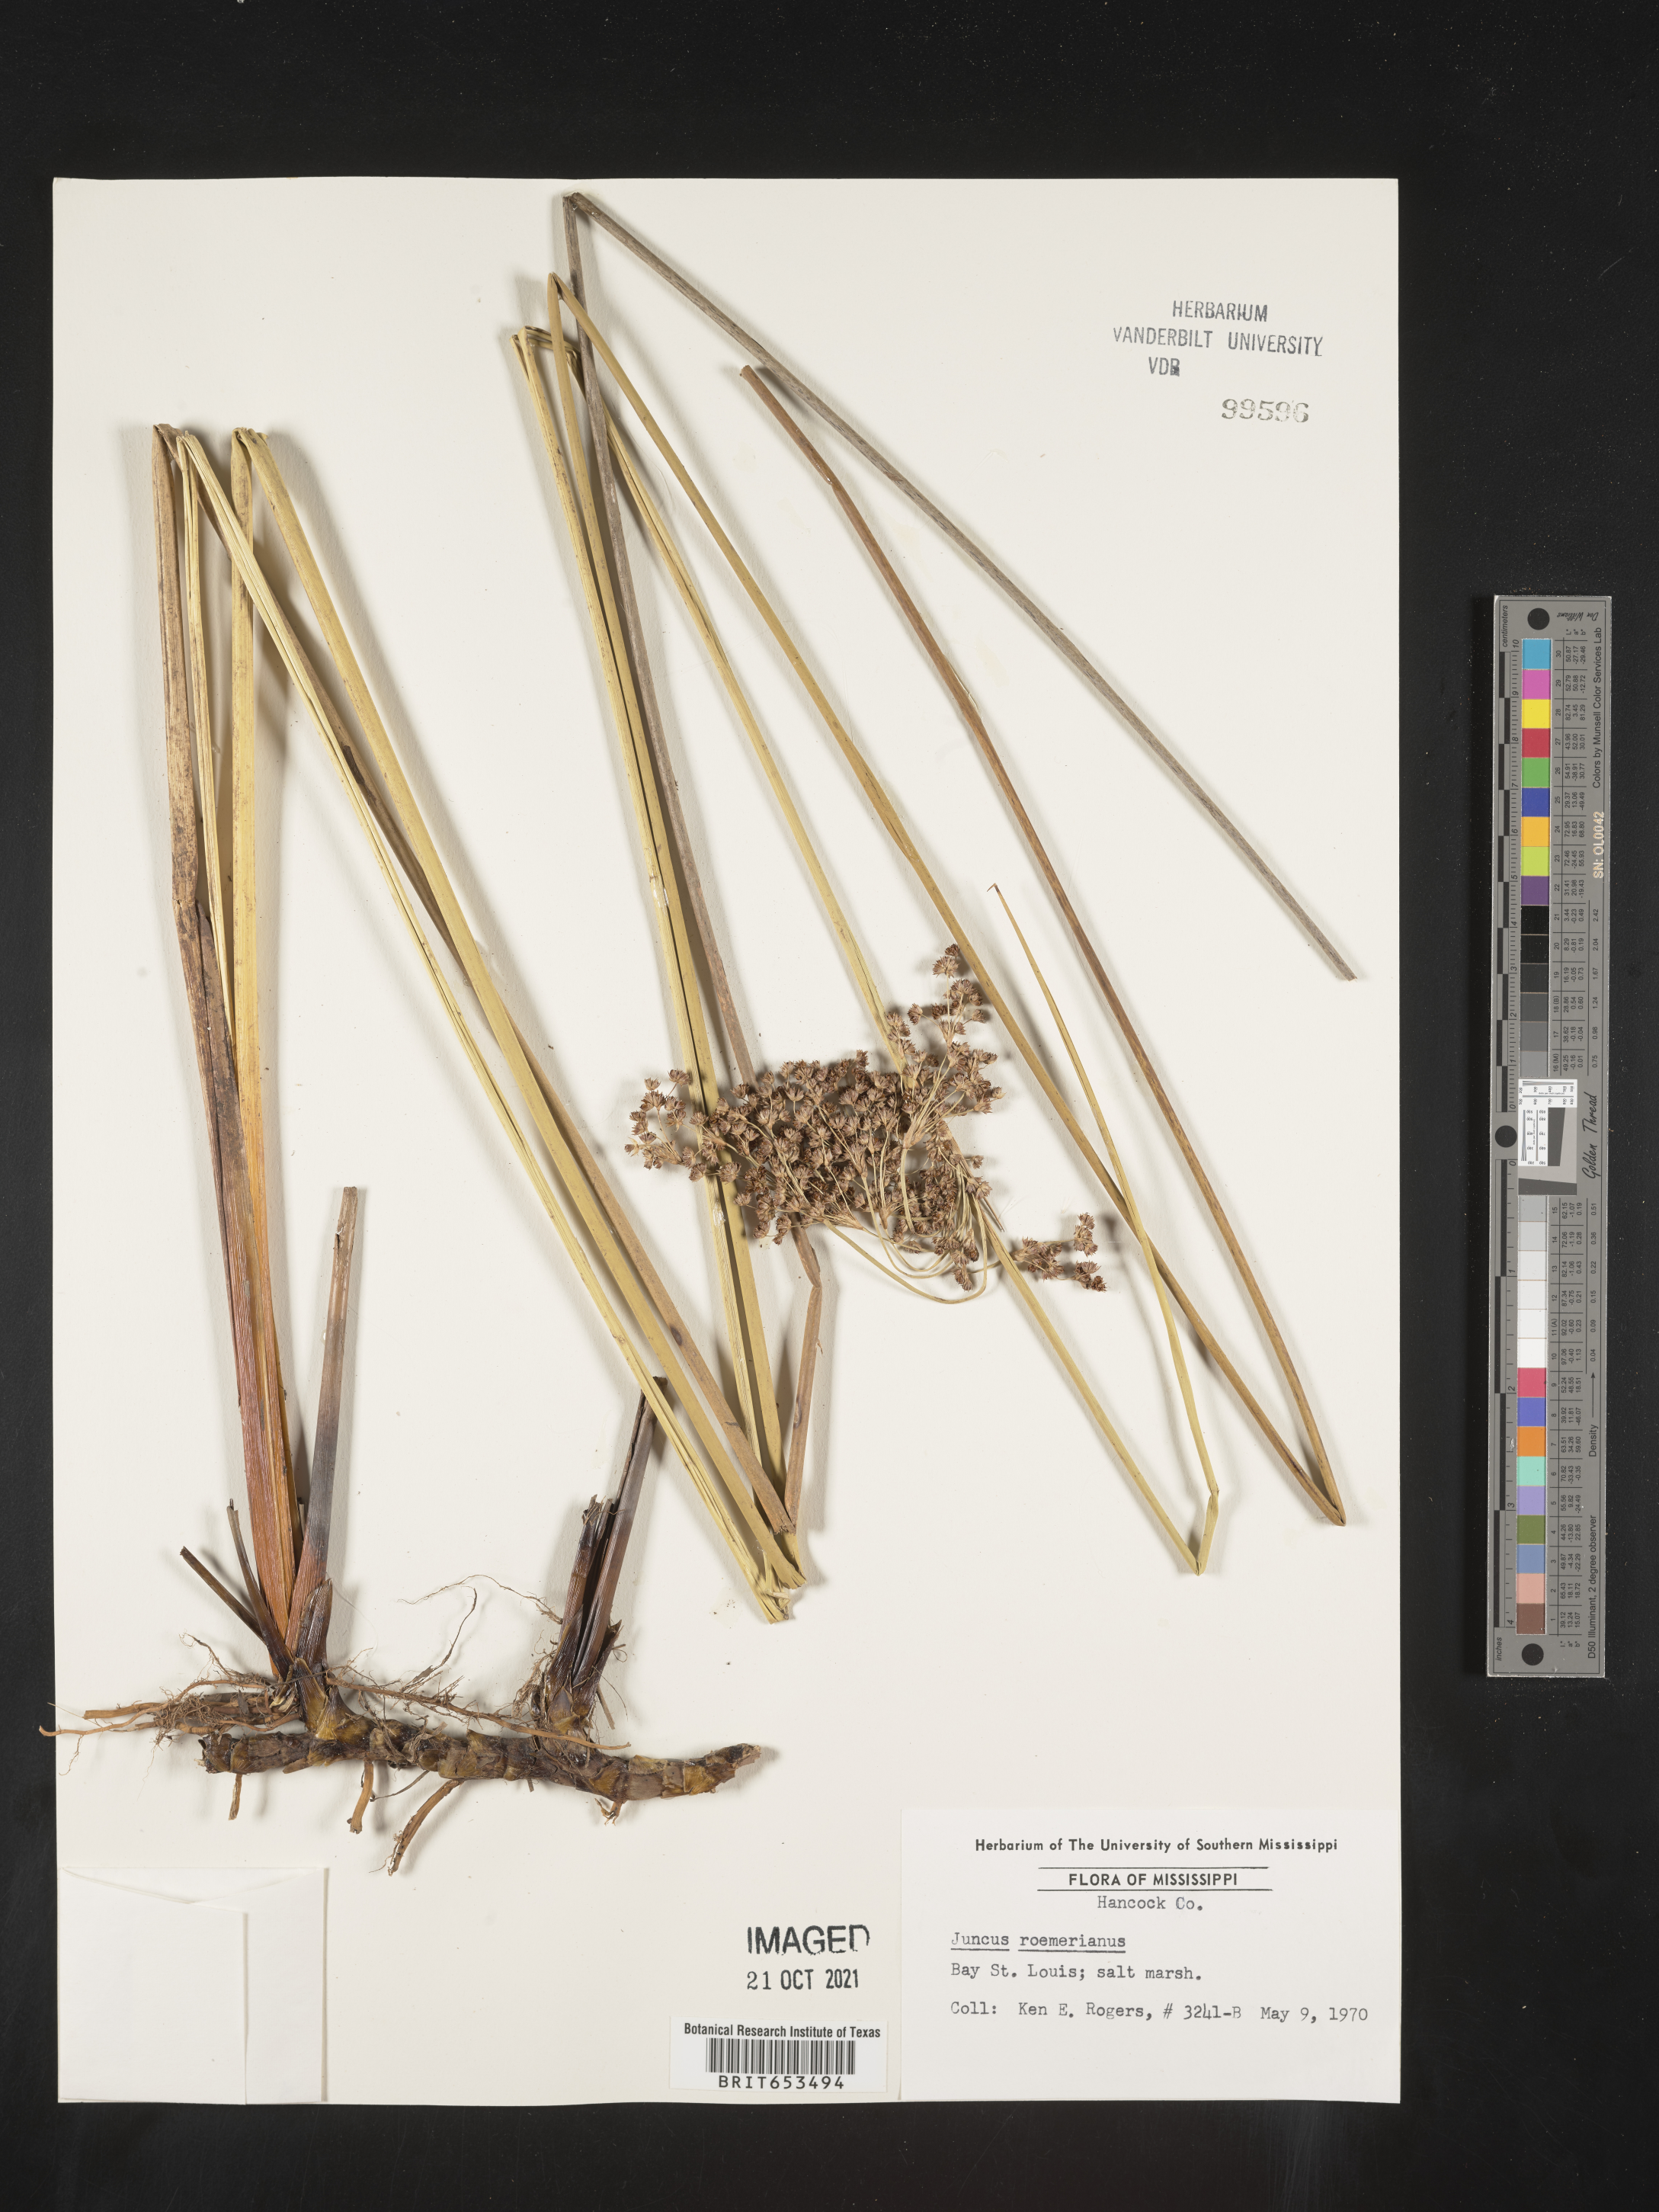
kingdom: Plantae
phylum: Tracheophyta
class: Liliopsida
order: Poales
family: Juncaceae
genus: Juncus
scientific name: Juncus roemerianus
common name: Roemer's rush
